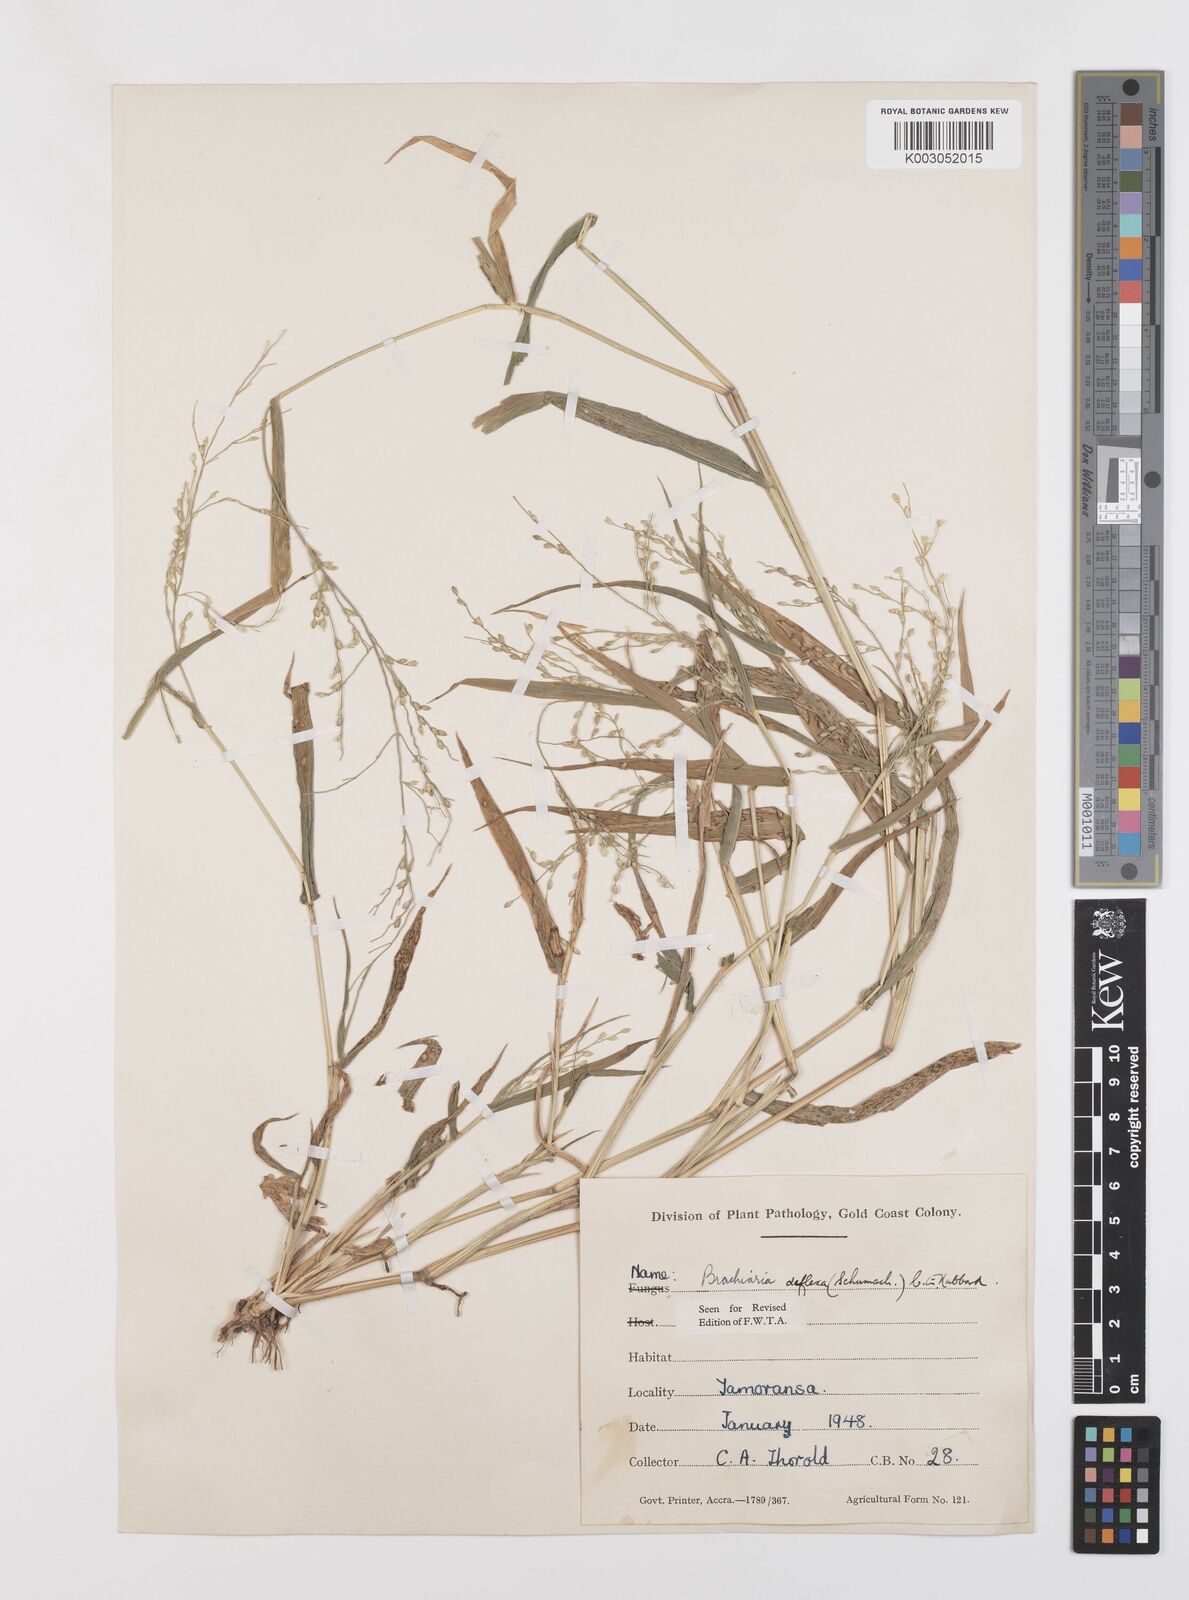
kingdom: Plantae
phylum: Tracheophyta
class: Liliopsida
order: Poales
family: Poaceae
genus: Urochloa
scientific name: Urochloa deflexa
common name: Guinea millet
